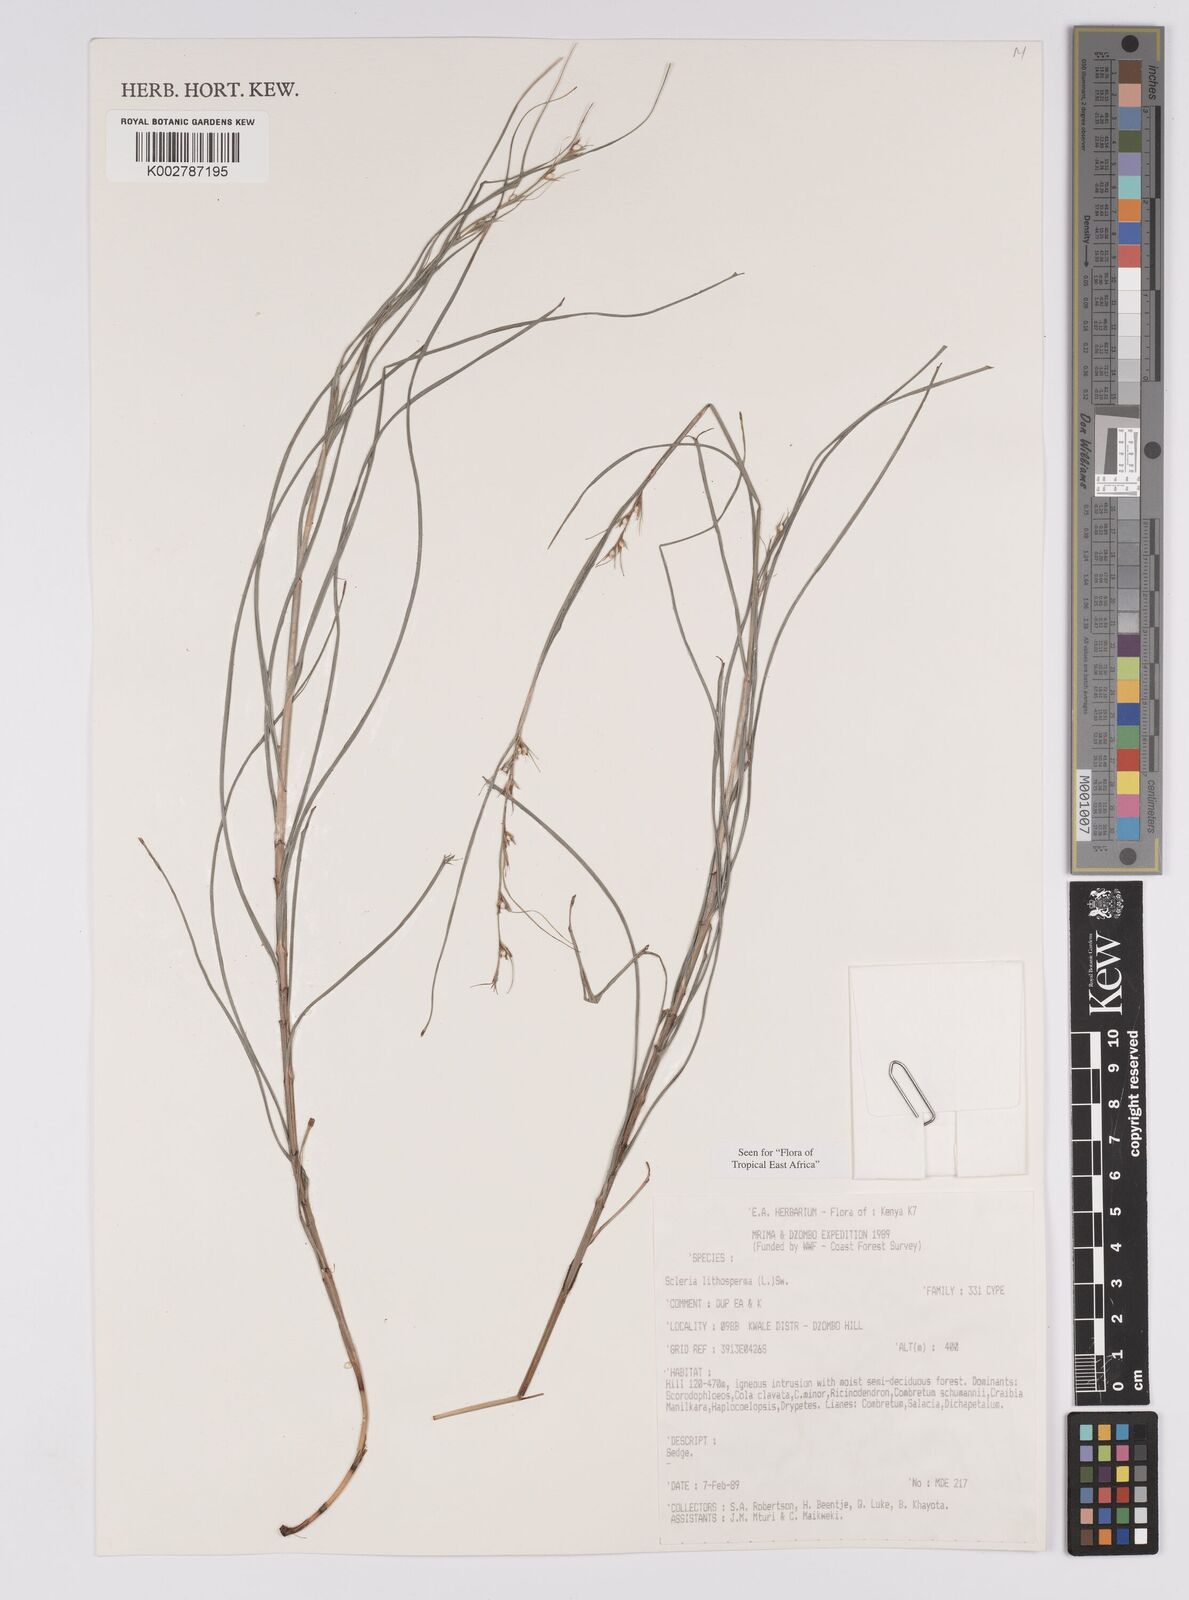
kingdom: Plantae
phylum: Tracheophyta
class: Liliopsida
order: Poales
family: Cyperaceae
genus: Scleria
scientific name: Scleria lithosperma
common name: Florida keys nut-rush
